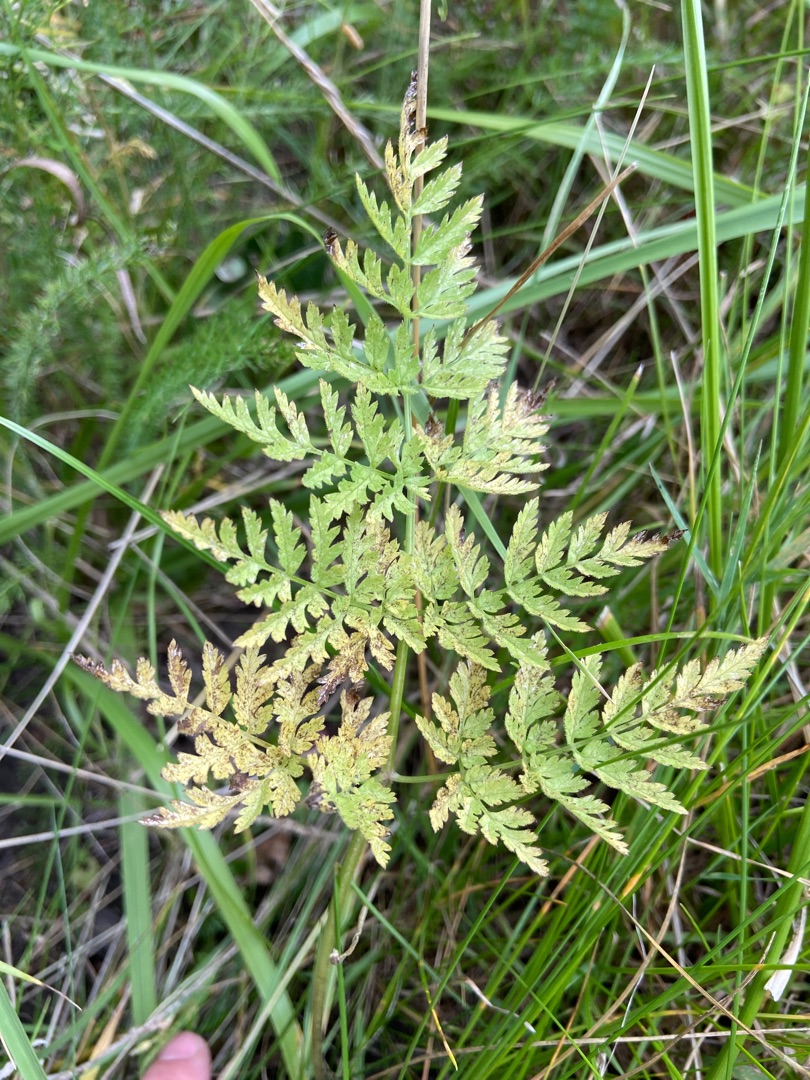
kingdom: Plantae
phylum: Tracheophyta
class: Magnoliopsida
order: Apiales
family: Apiaceae
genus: Anthriscus
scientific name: Anthriscus sylvestris
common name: Vild kørvel
